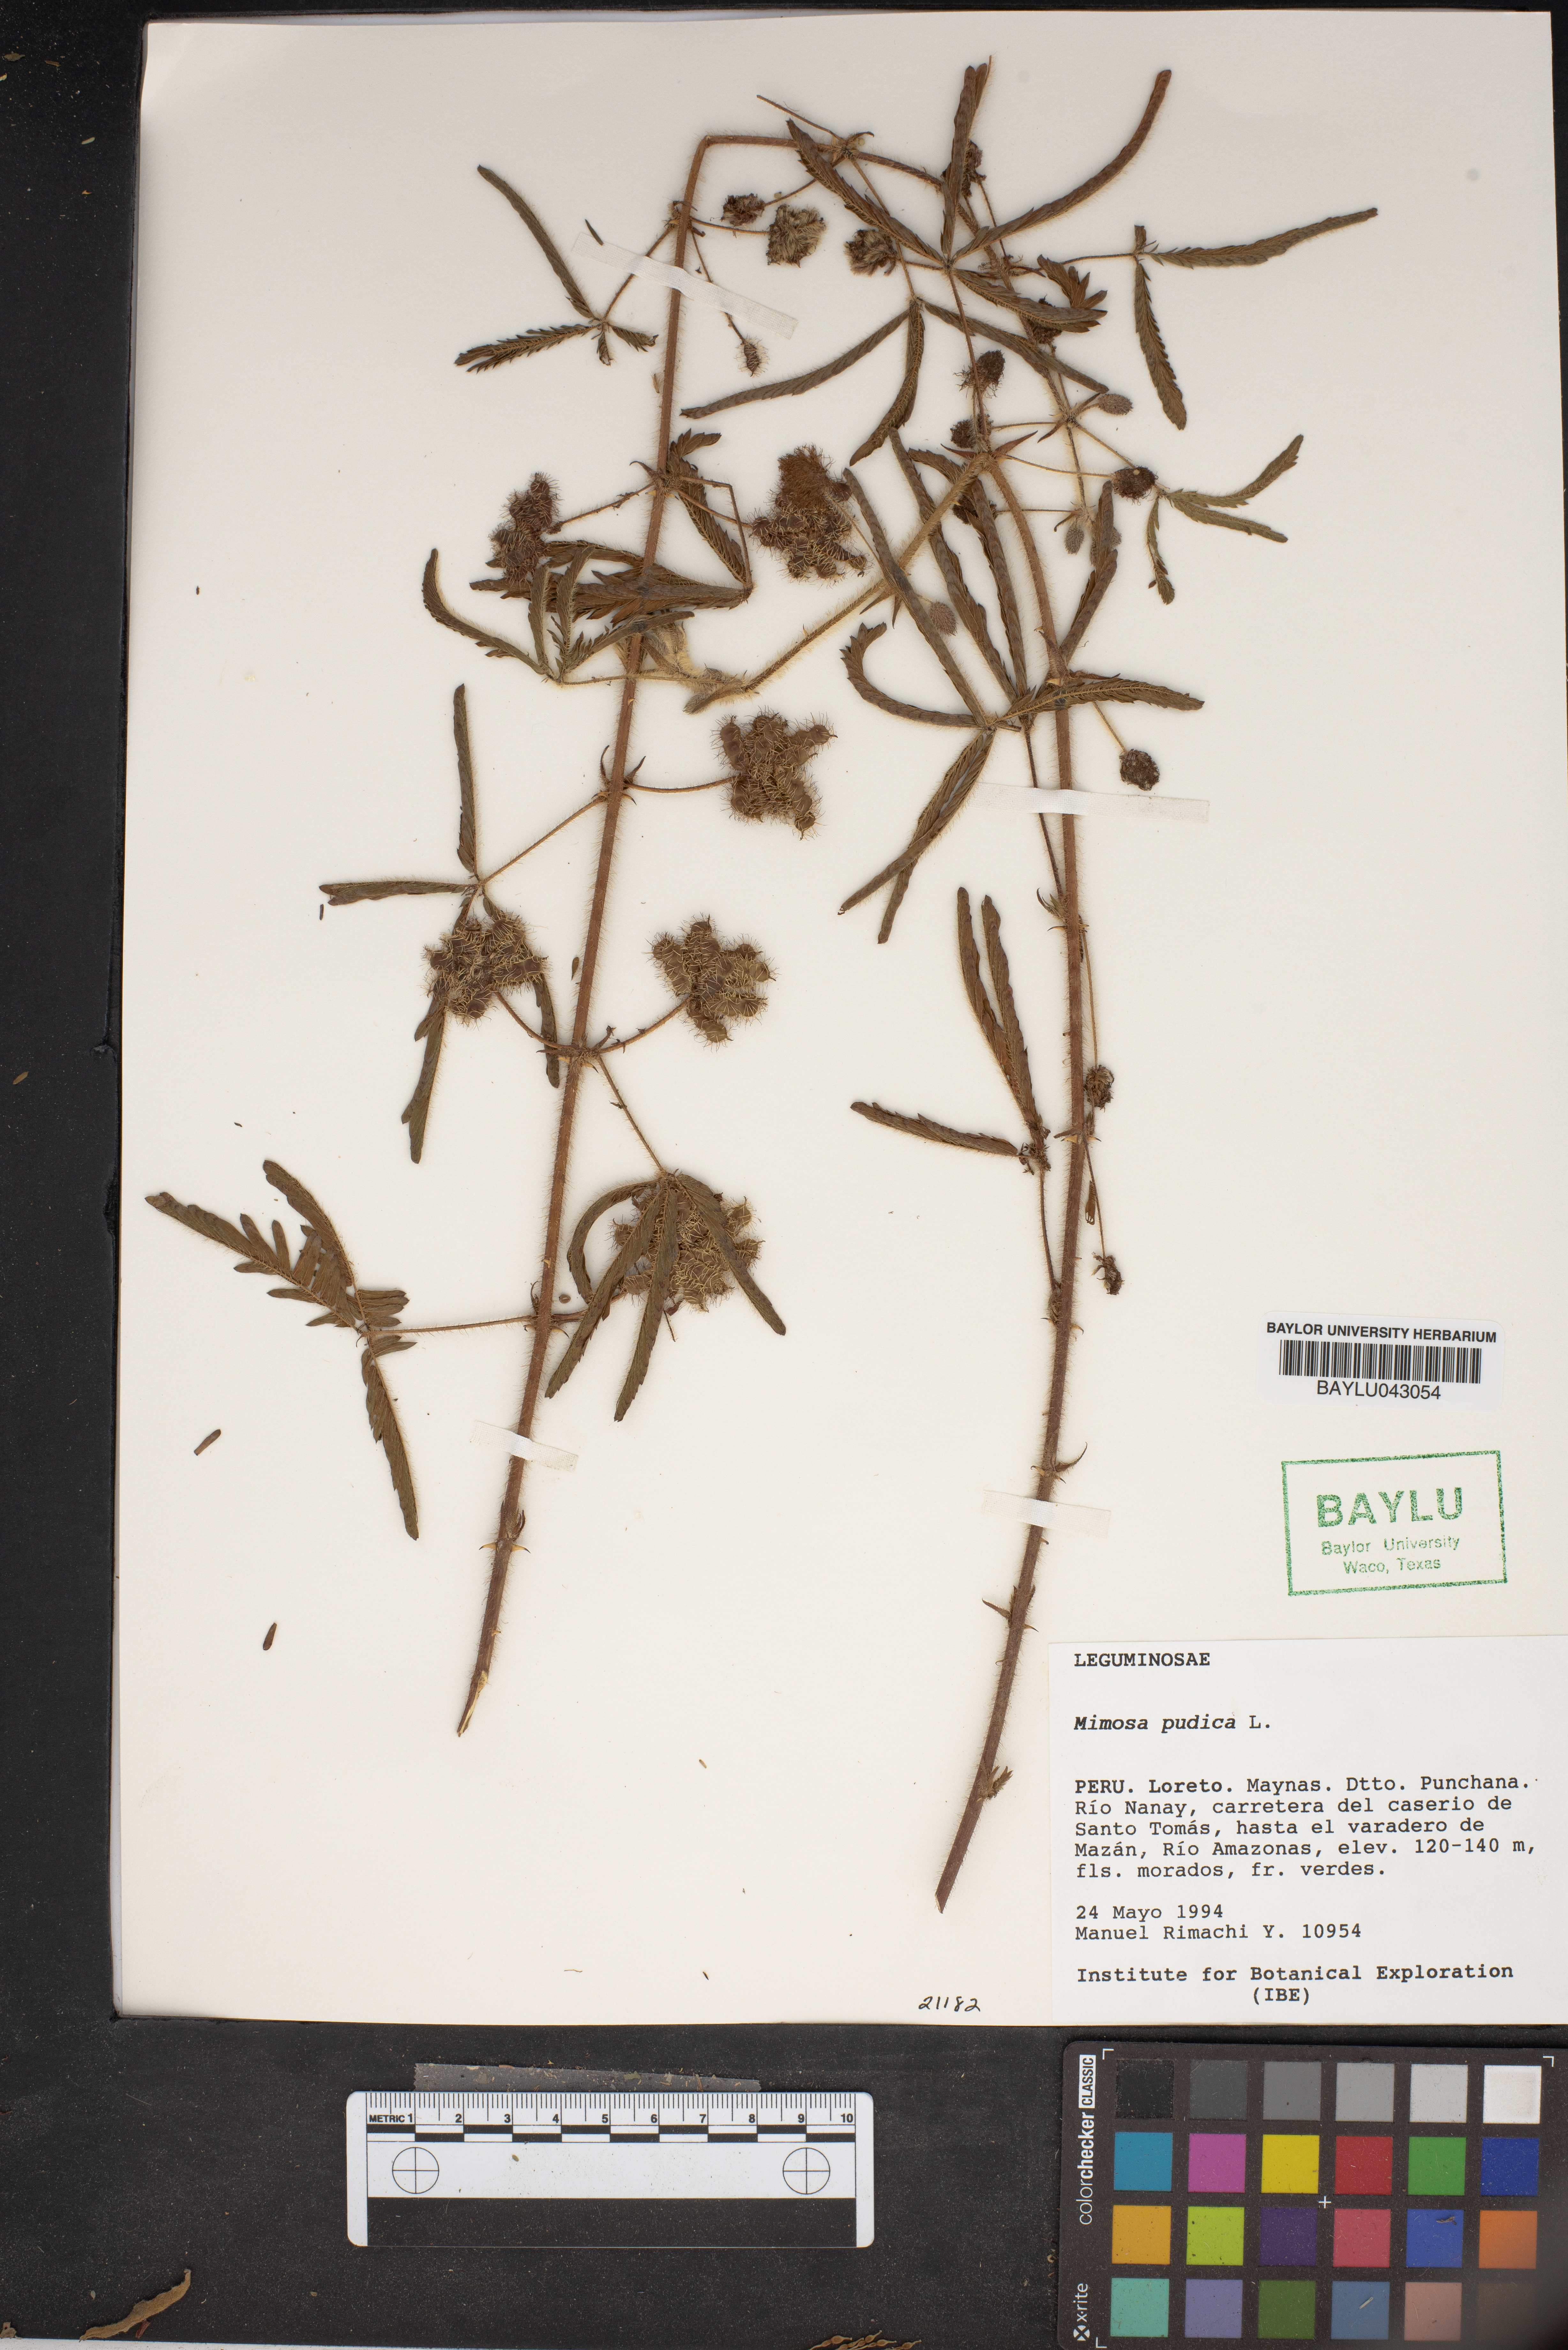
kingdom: Plantae
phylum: Tracheophyta
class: Magnoliopsida
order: Fabales
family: Fabaceae
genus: Mimosa
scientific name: Mimosa pudica
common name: Sensitive plant
